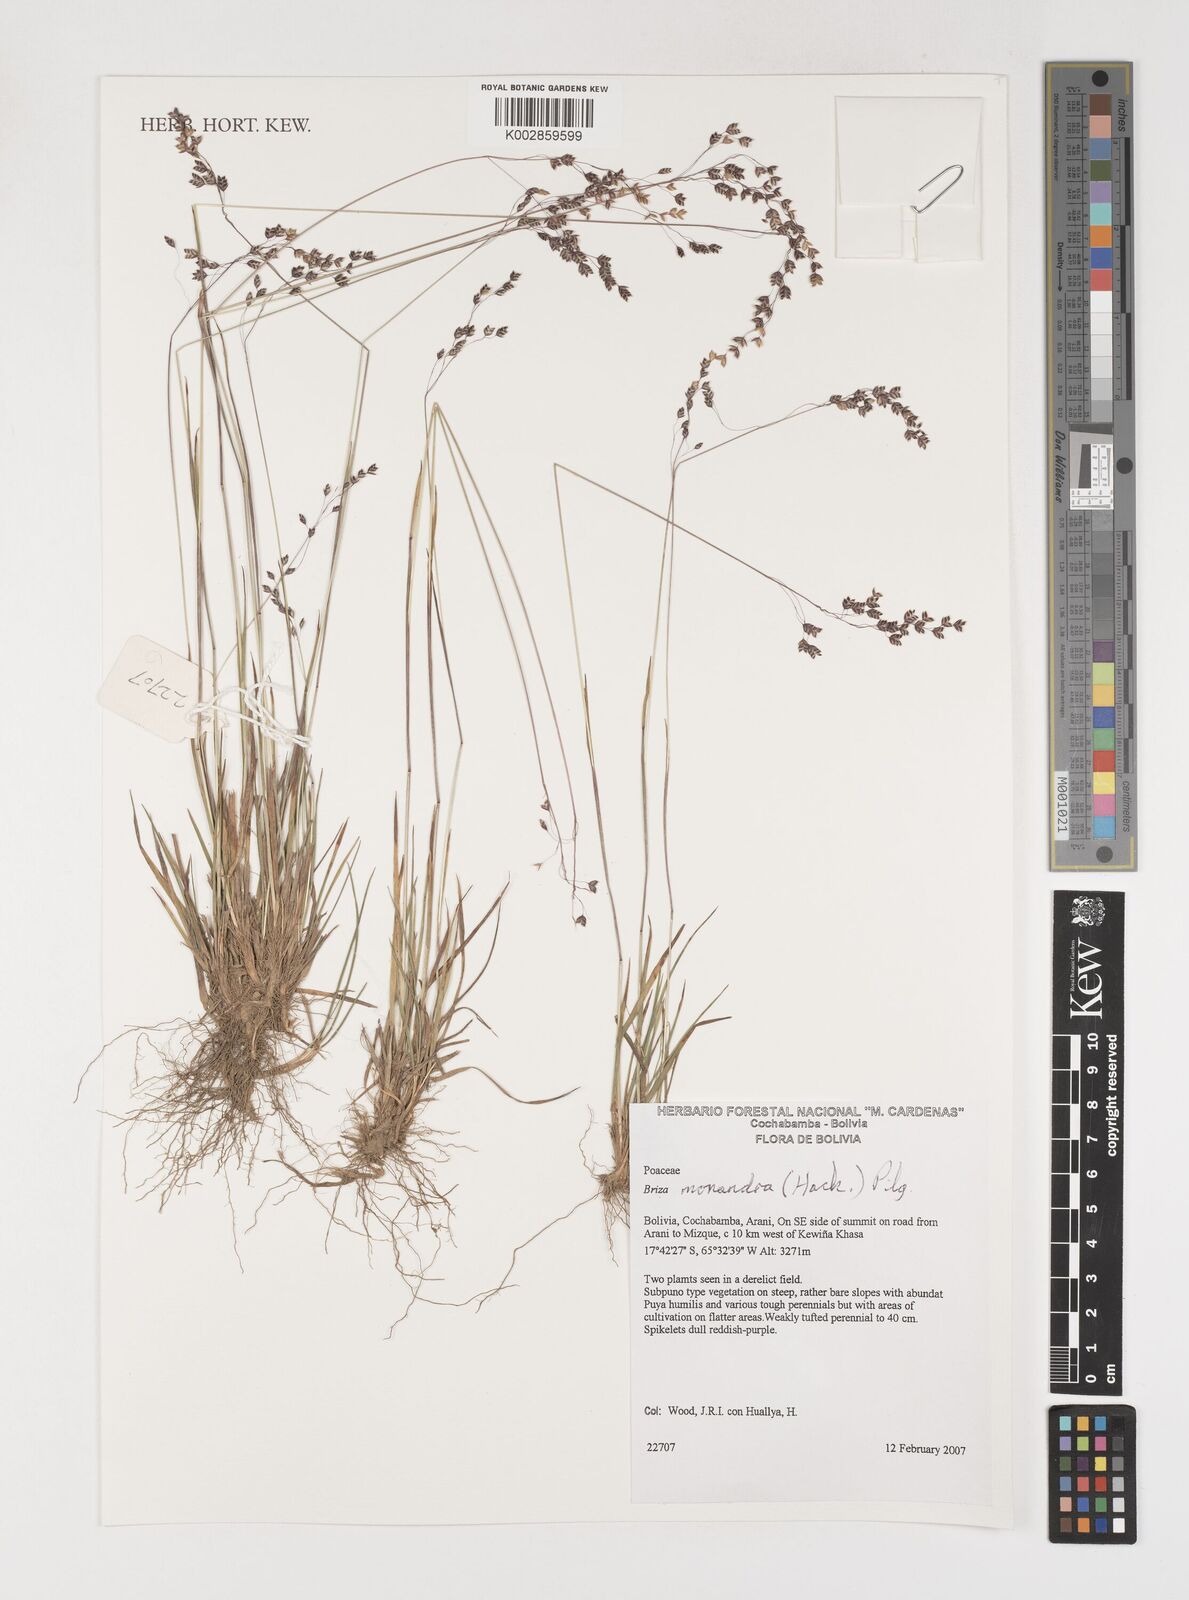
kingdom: Plantae
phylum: Tracheophyta
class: Liliopsida
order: Poales
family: Poaceae
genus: Poidium
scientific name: Poidium monandrum
